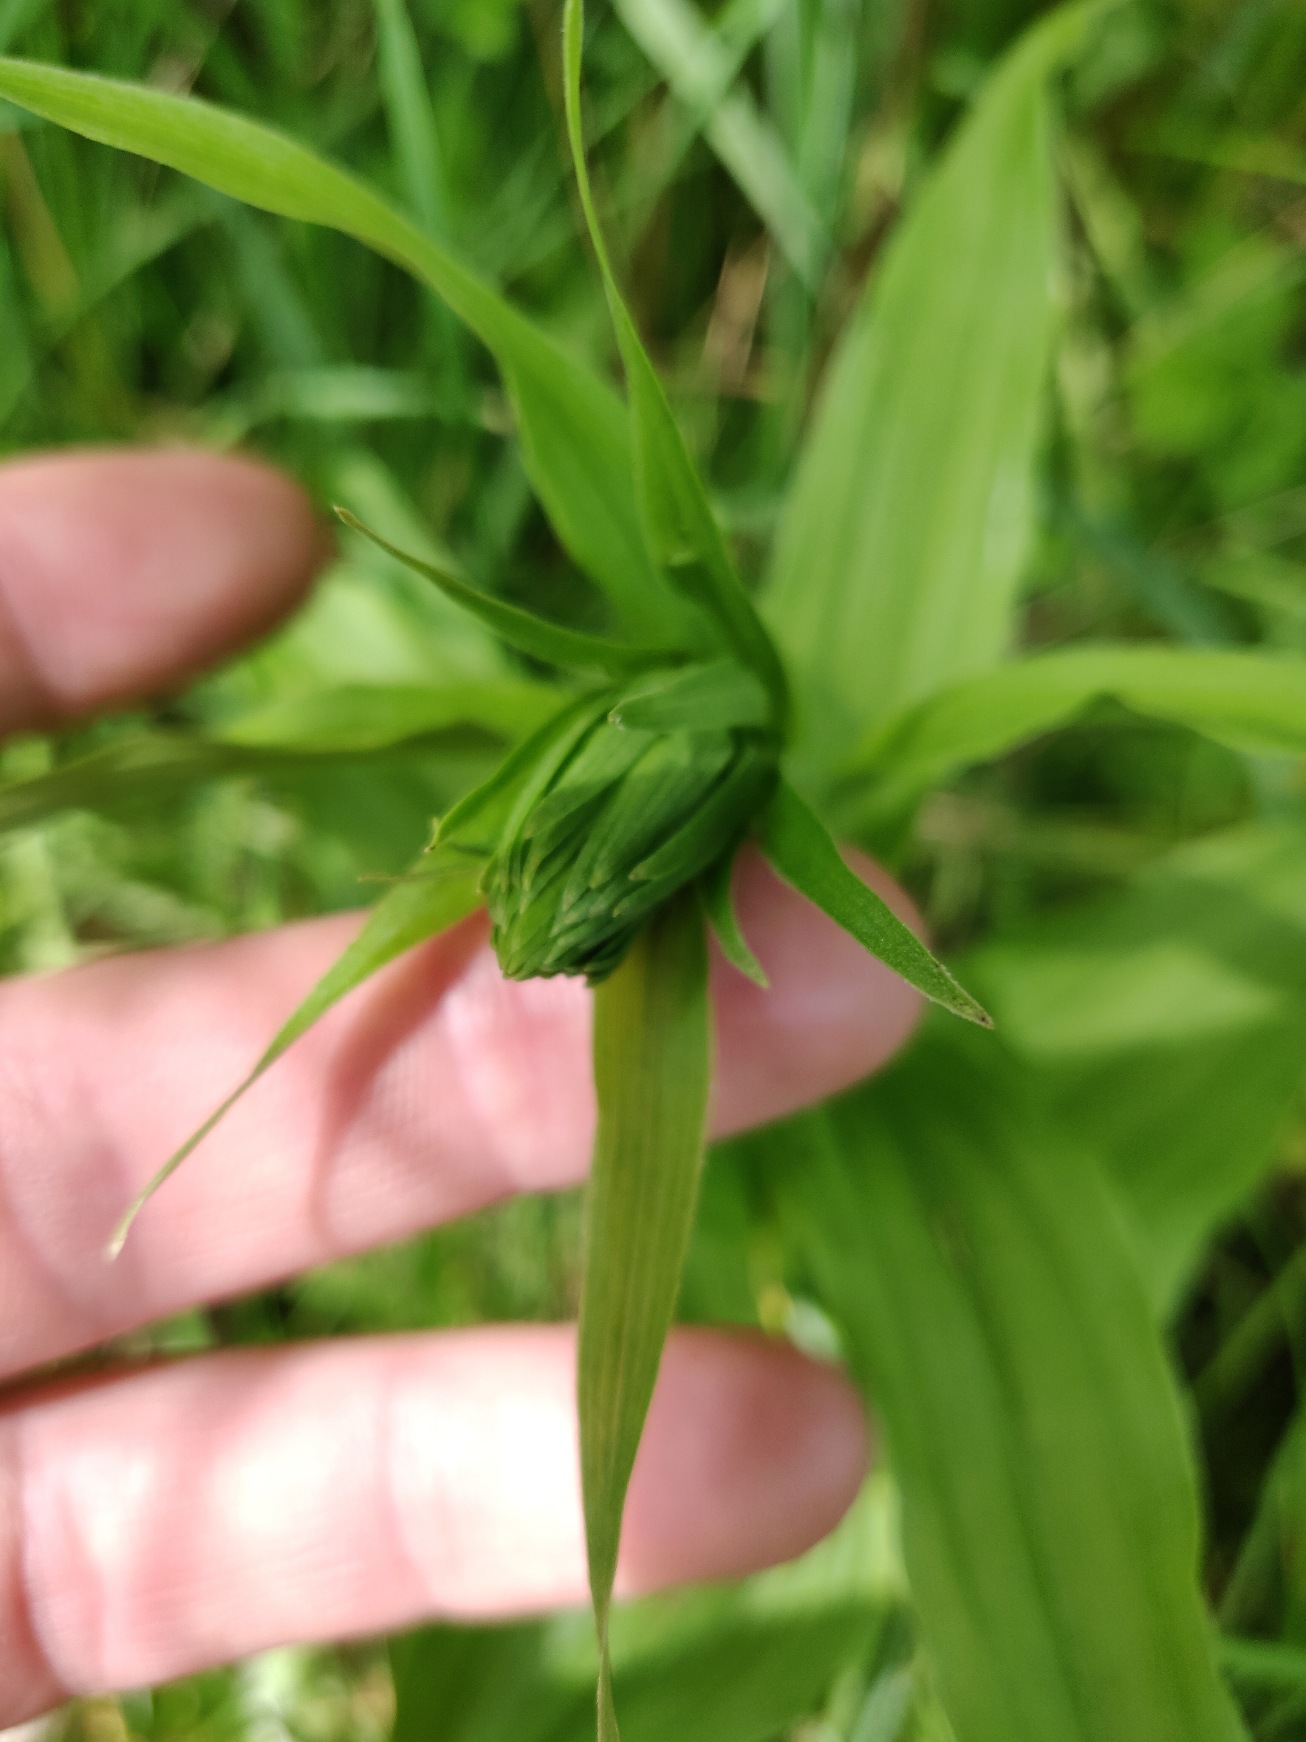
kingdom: Plantae
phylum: Tracheophyta
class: Liliopsida
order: Asparagales
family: Orchidaceae
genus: Epipactis
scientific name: Epipactis helleborine
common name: Skov-hullæbe
